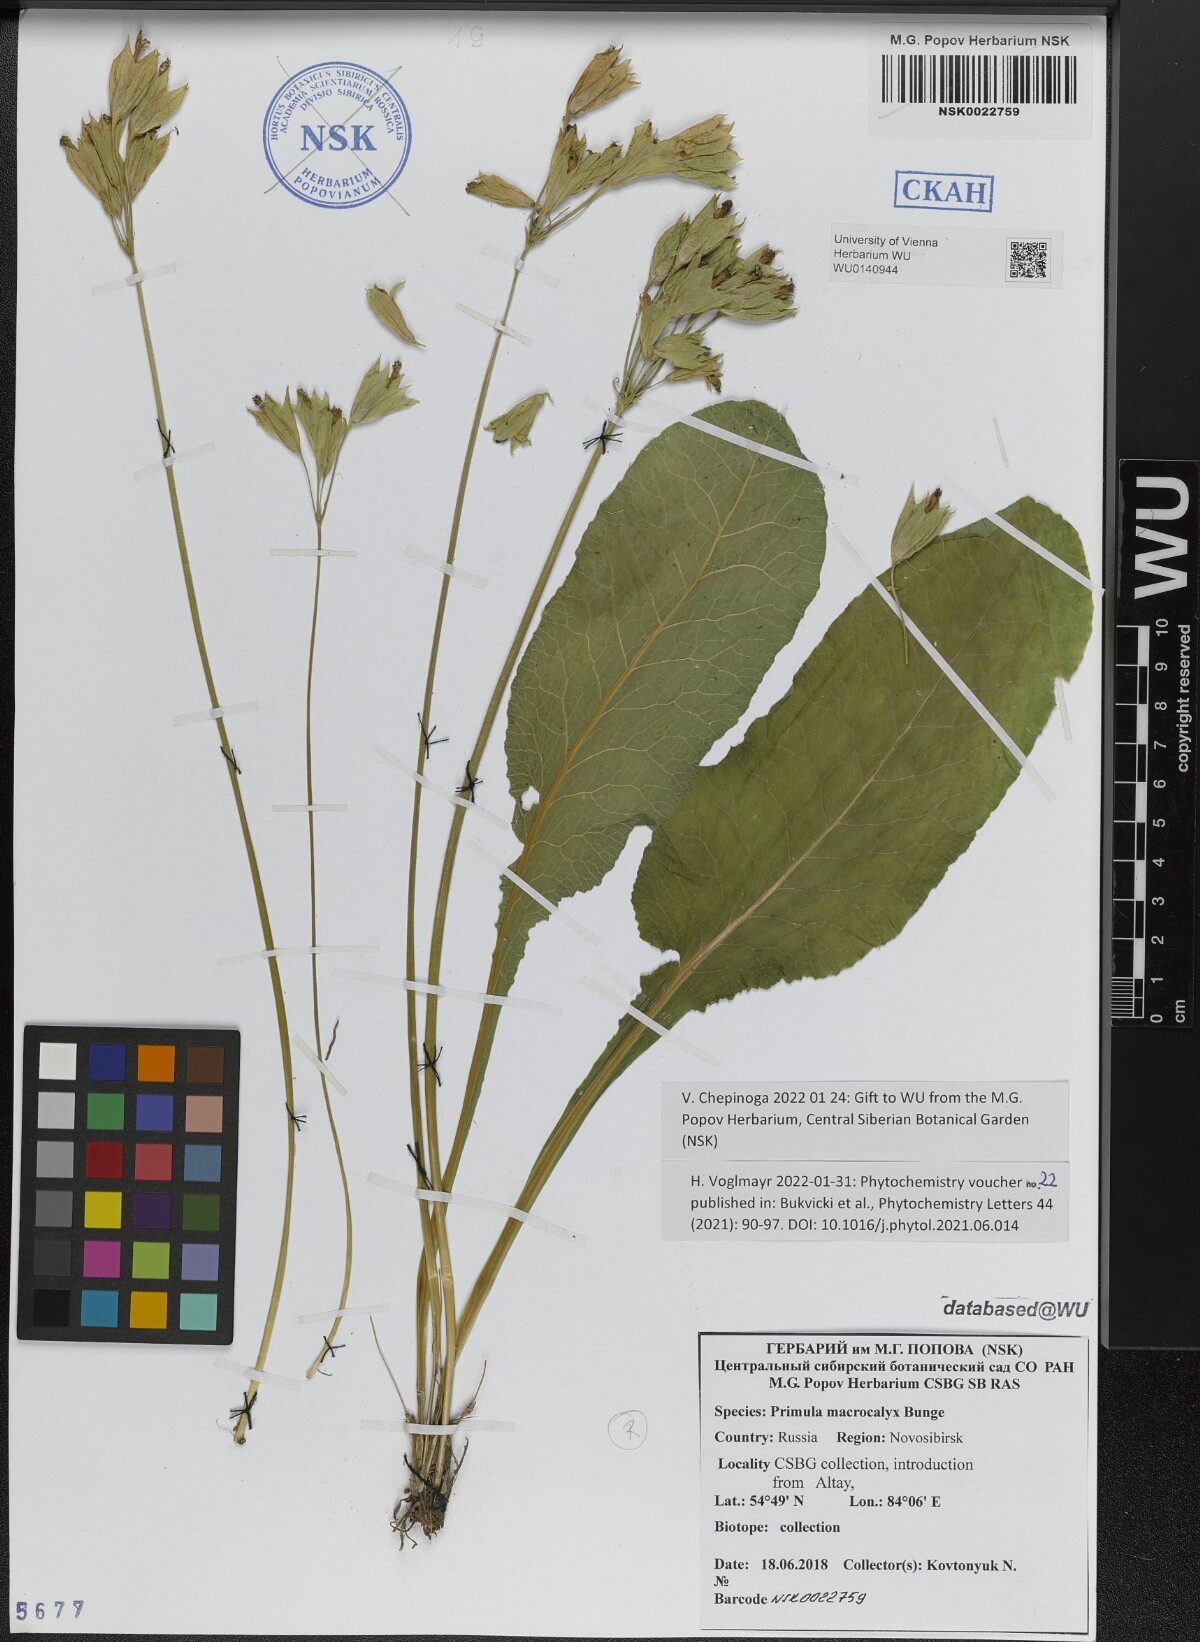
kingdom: Plantae
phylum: Tracheophyta
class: Magnoliopsida
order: Ericales
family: Primulaceae
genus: Primula
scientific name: Primula veris
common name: Cowslip
